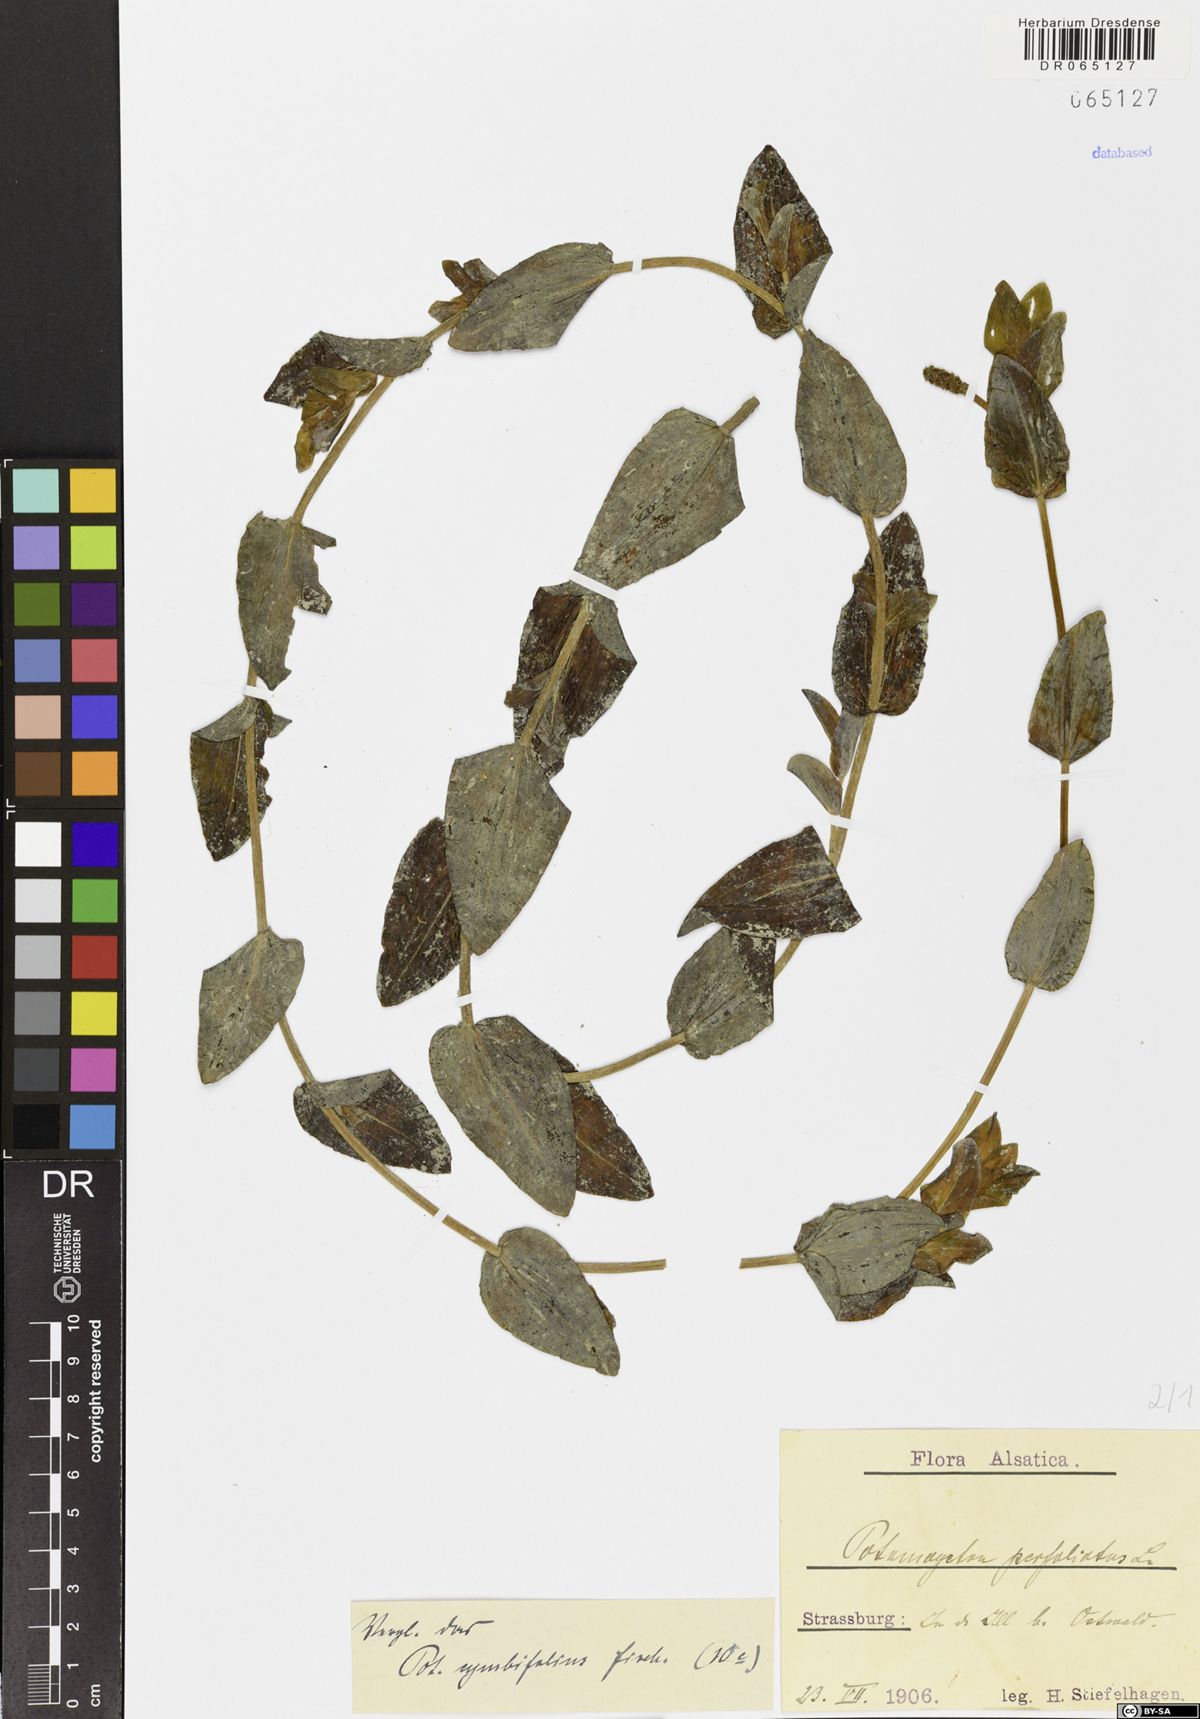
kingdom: Plantae
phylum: Tracheophyta
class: Liliopsida
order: Alismatales
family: Potamogetonaceae
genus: Potamogeton
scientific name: Potamogeton perfoliatus
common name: Perfoliate pondweed
